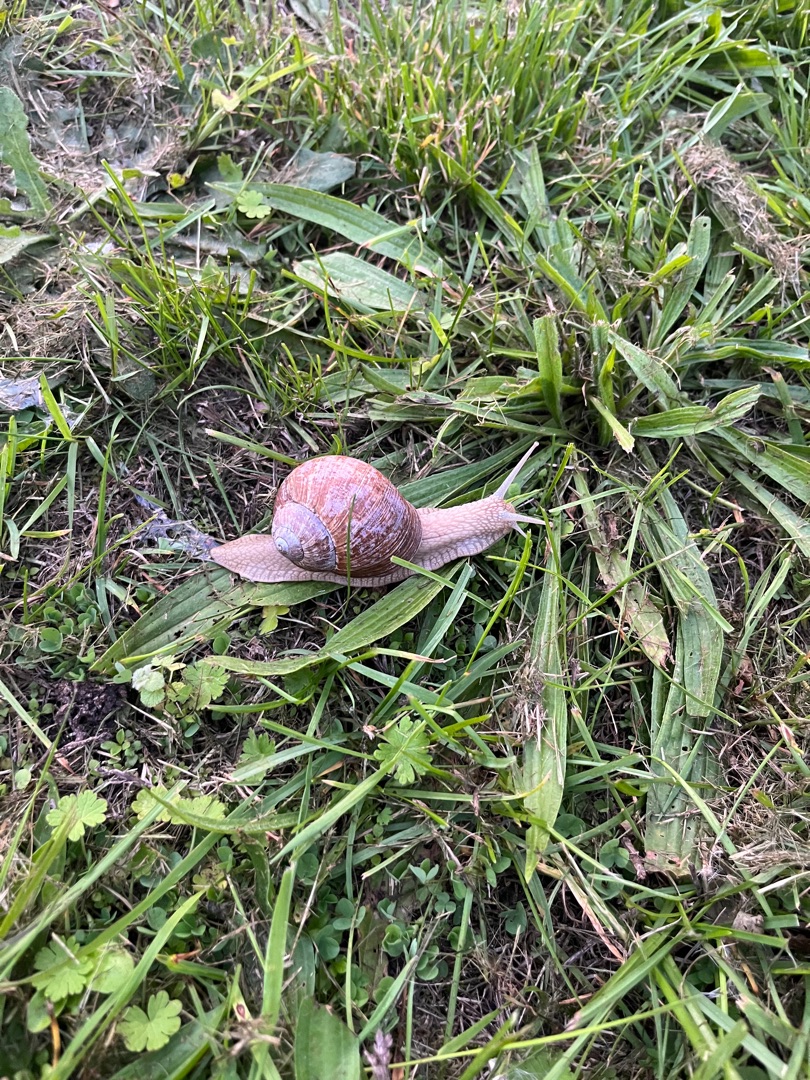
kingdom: Animalia
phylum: Mollusca
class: Gastropoda
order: Stylommatophora
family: Helicidae
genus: Helix
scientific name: Helix pomatia
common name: Vinbjergsnegl
